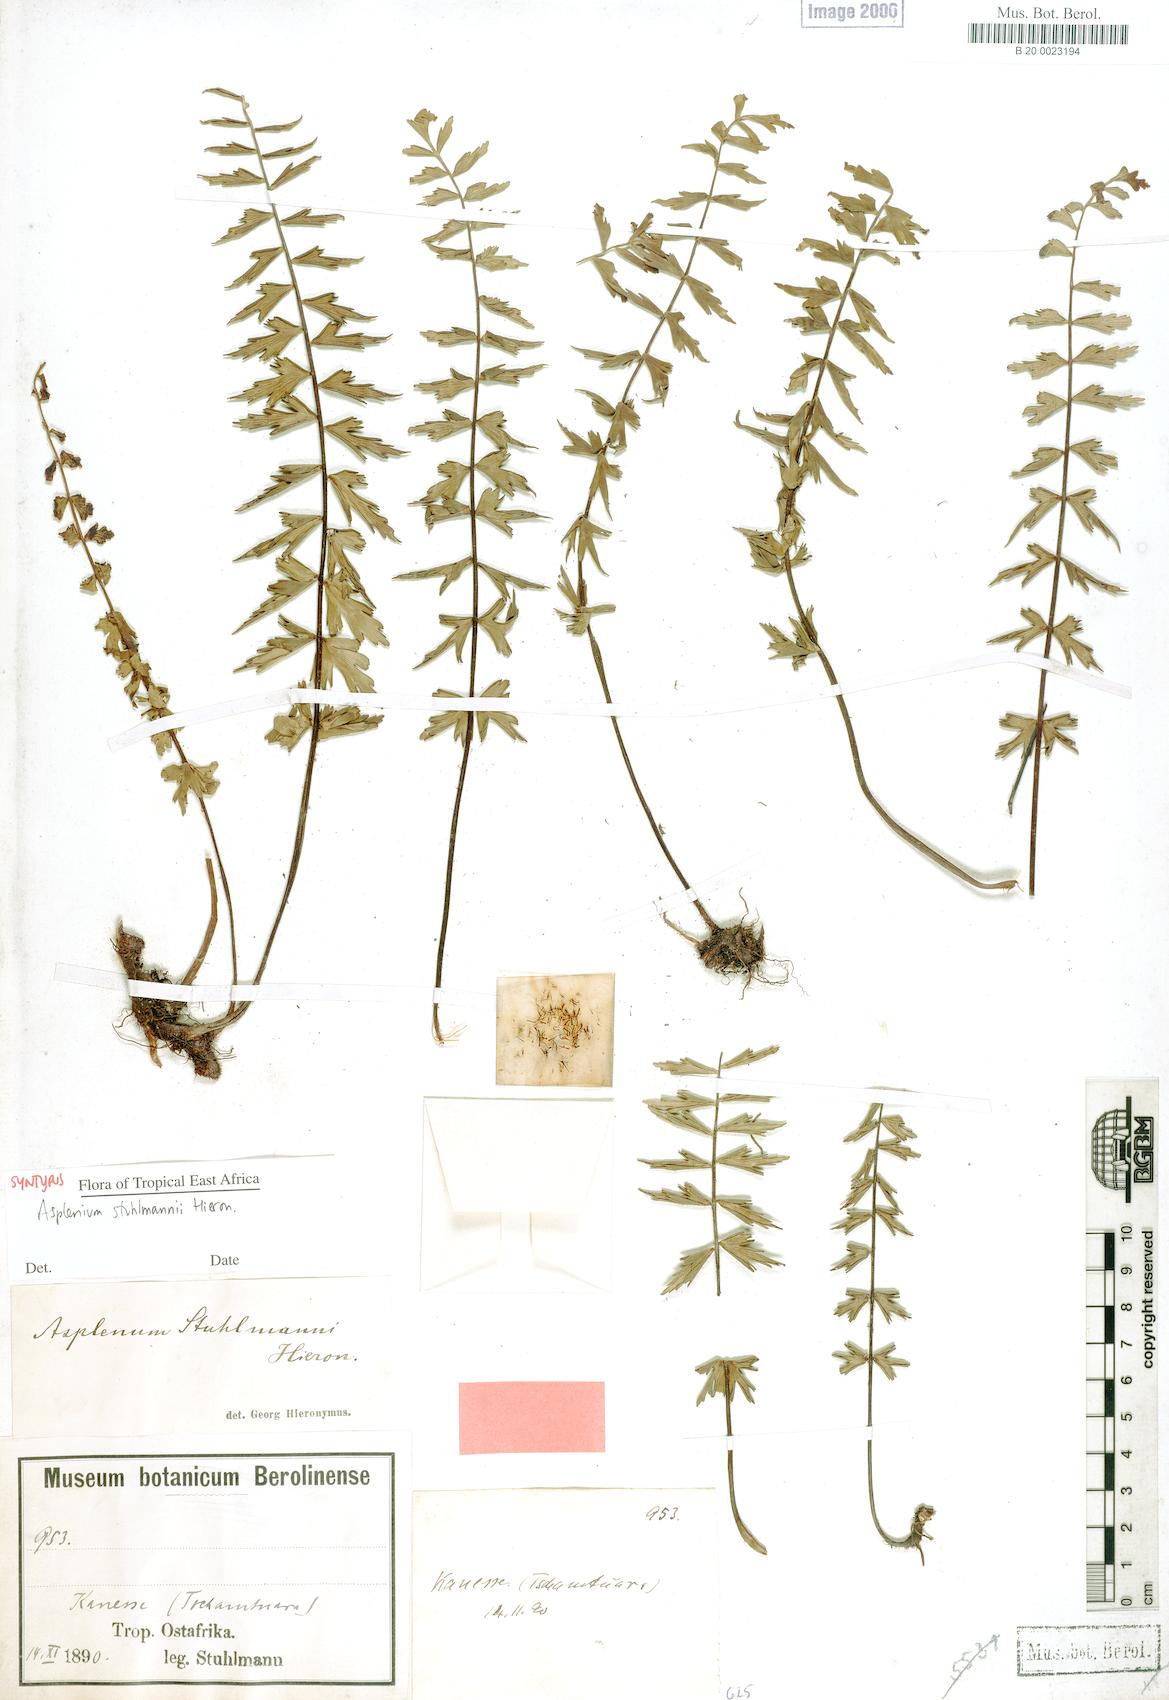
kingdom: Plantae
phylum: Tracheophyta
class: Polypodiopsida
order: Polypodiales
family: Aspleniaceae
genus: Asplenium
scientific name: Asplenium stuhlmannii
